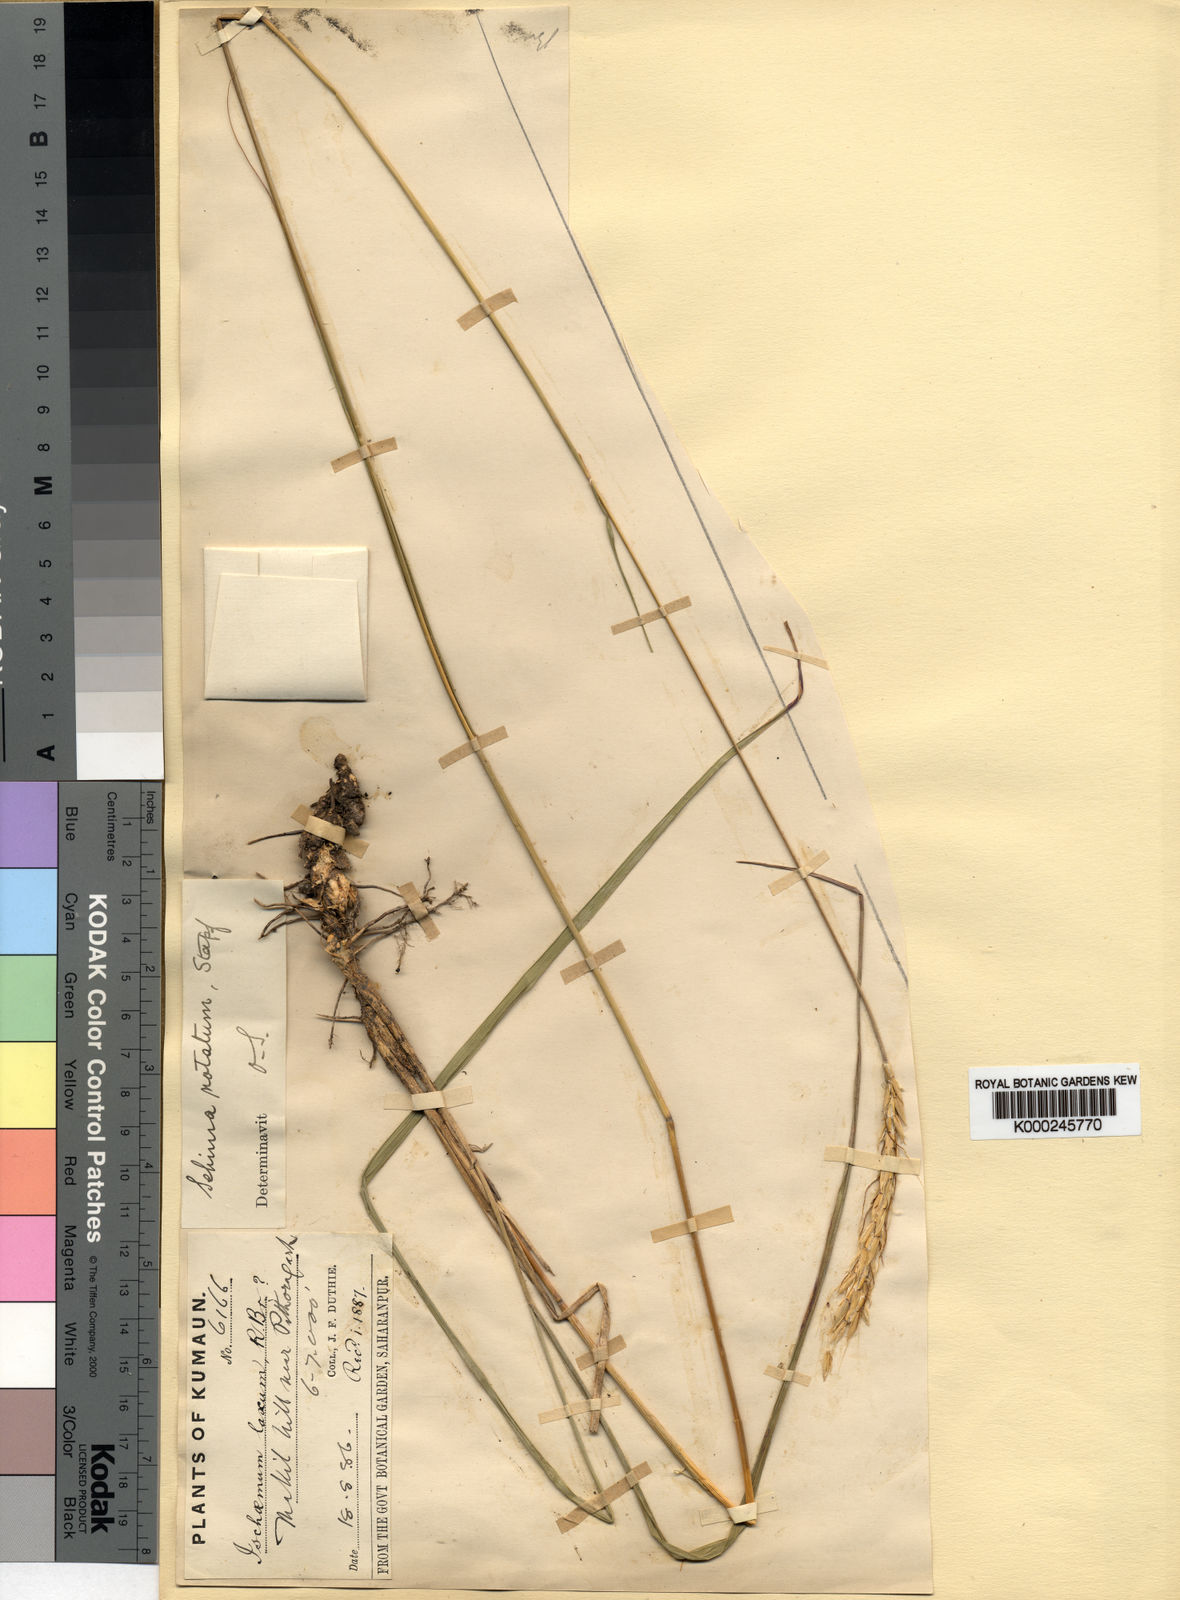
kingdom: Plantae
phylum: Tracheophyta
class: Liliopsida
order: Poales
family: Poaceae
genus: Sehima
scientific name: Sehima notata
